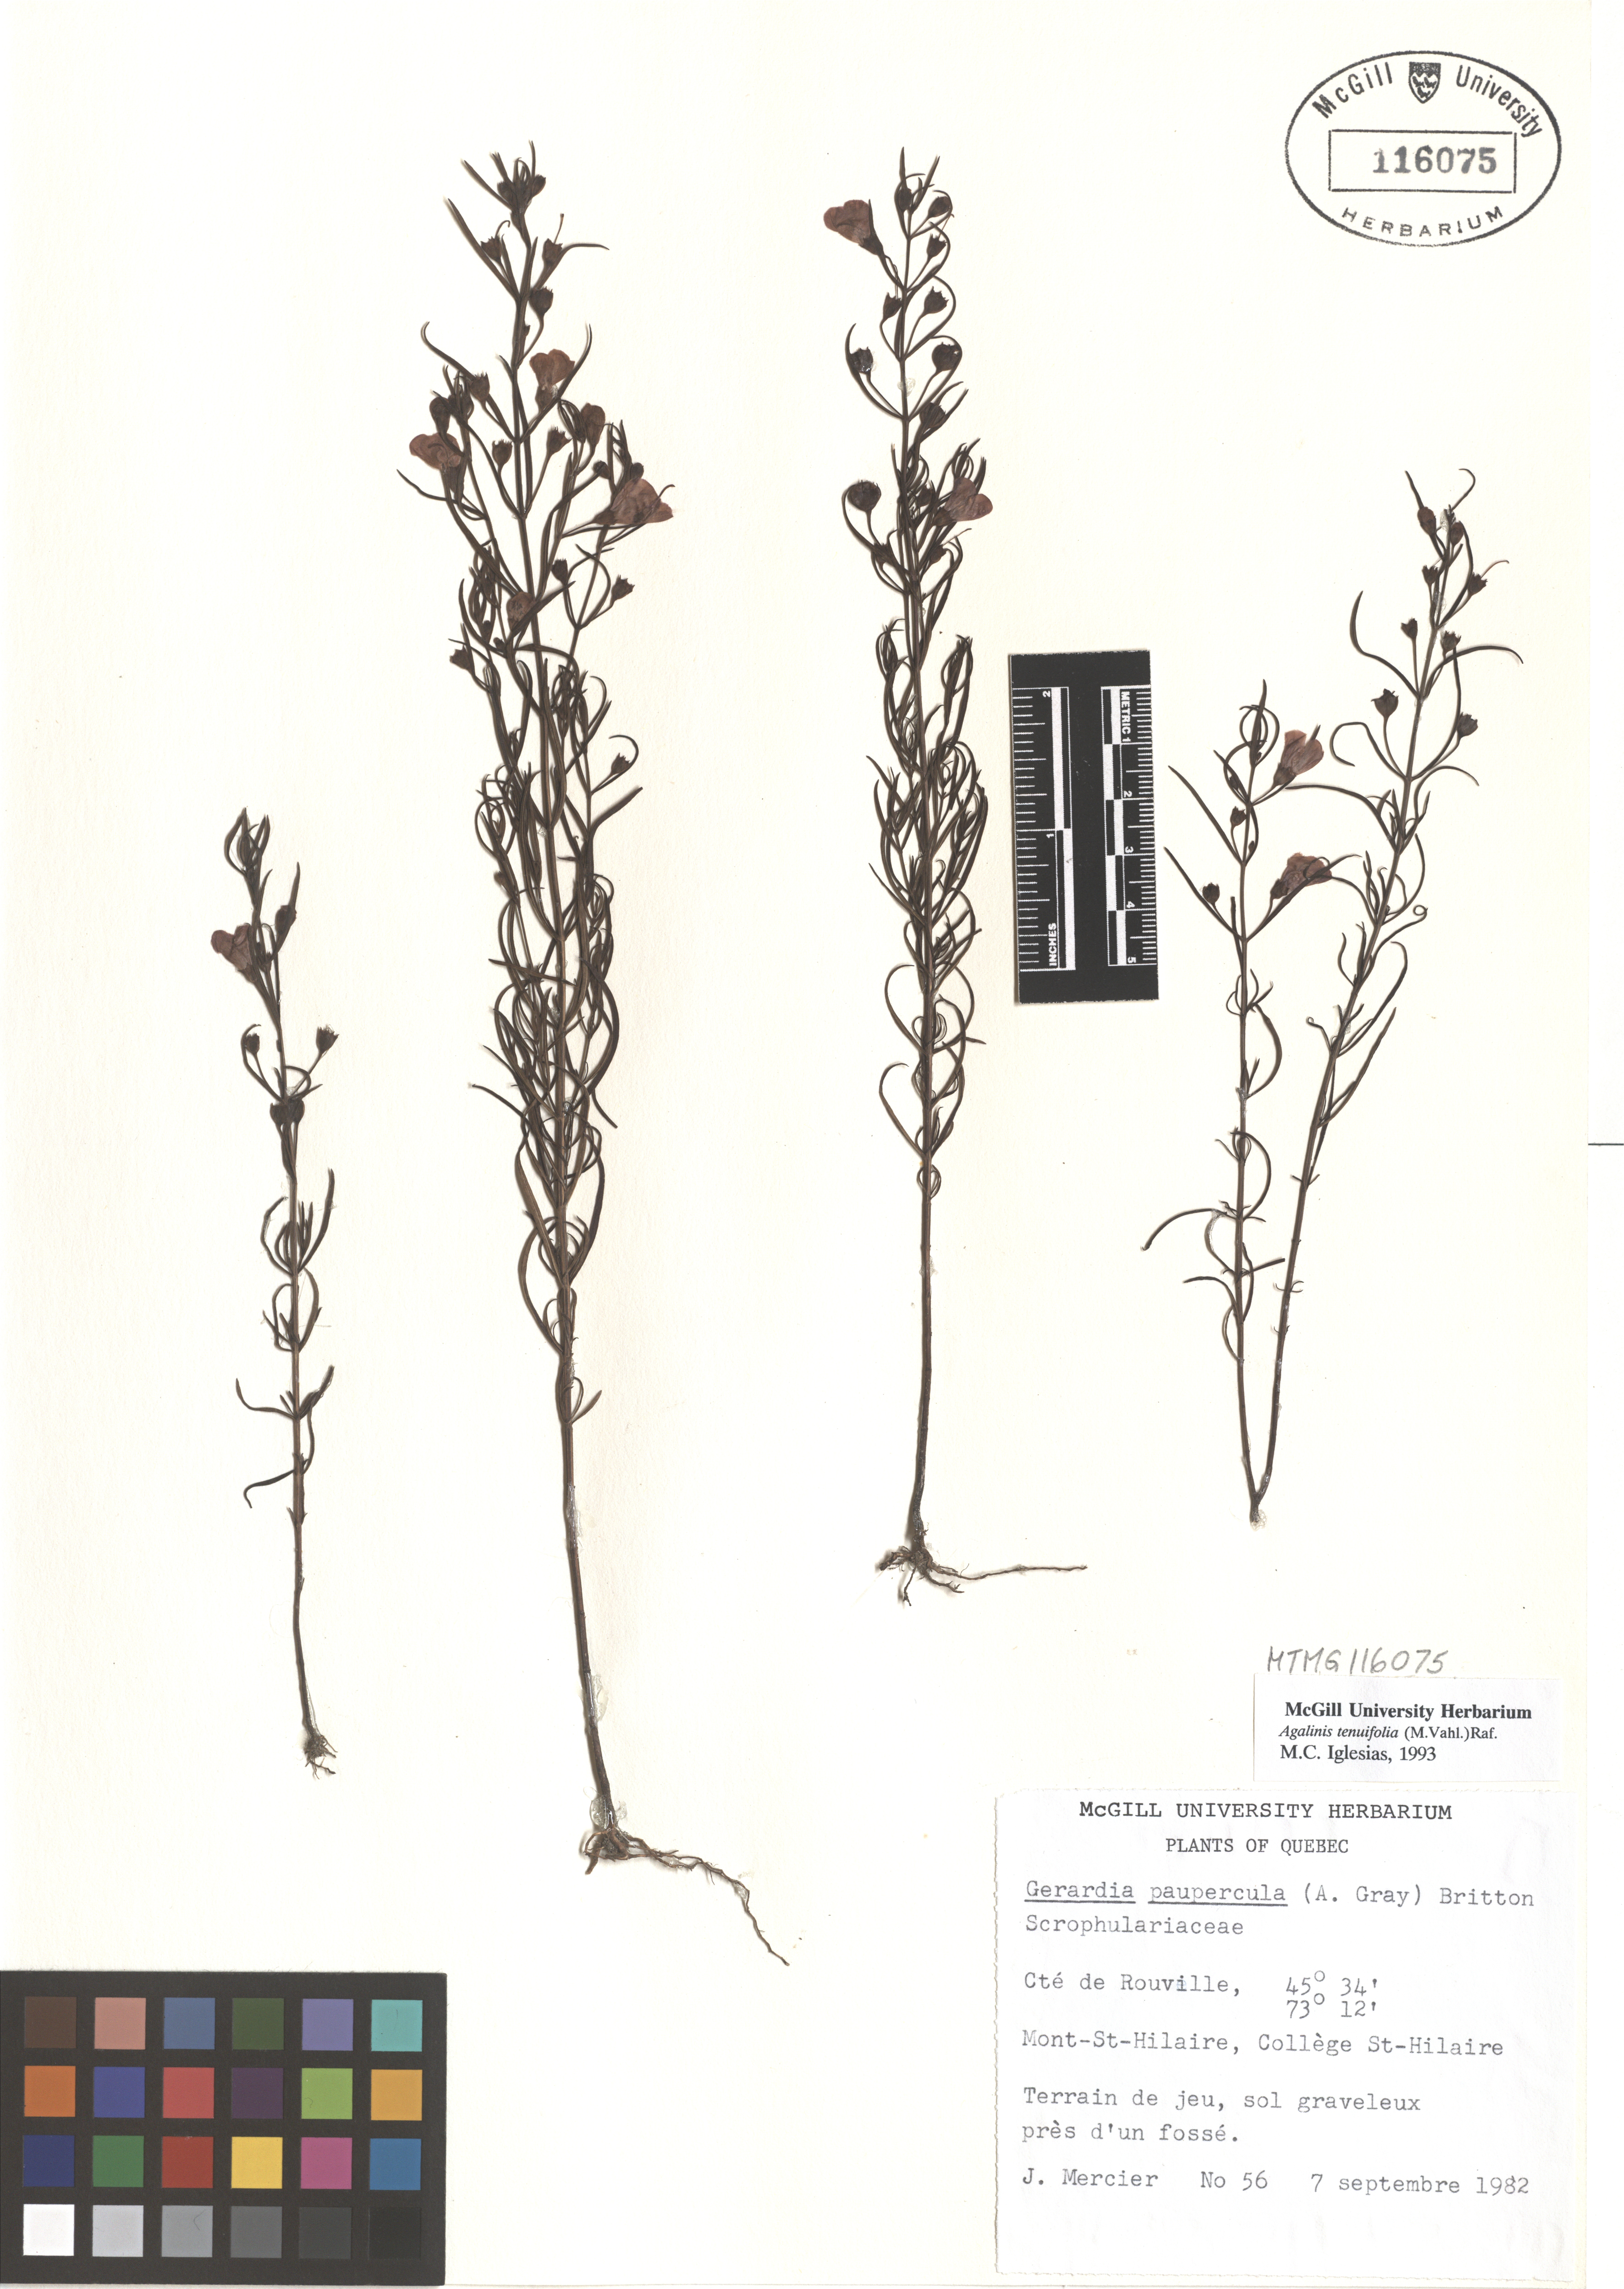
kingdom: Plantae
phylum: Tracheophyta
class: Magnoliopsida
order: Lamiales
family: Orobanchaceae
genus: Agalinis
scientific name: Agalinis tenuifolia
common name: Slender agalinis
